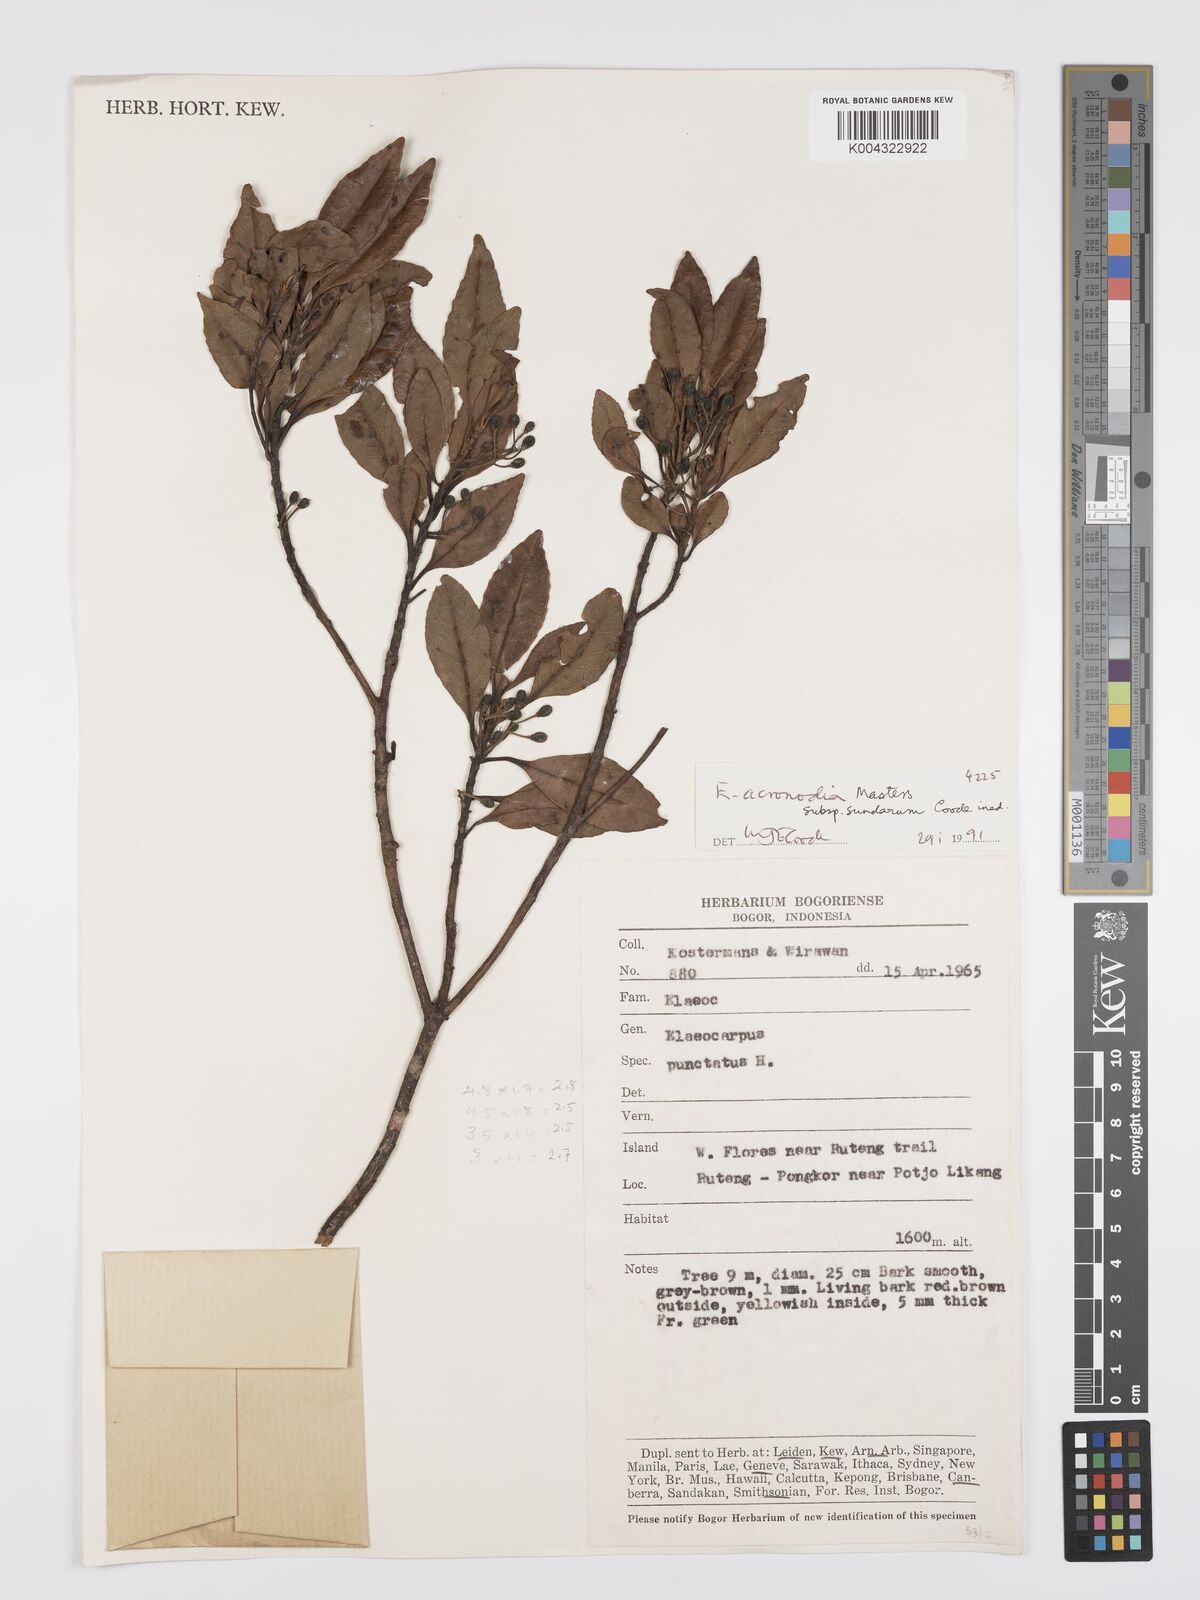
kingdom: Plantae
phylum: Tracheophyta
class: Magnoliopsida
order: Oxalidales
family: Elaeocarpaceae
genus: Elaeocarpus
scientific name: Elaeocarpus acronodia
